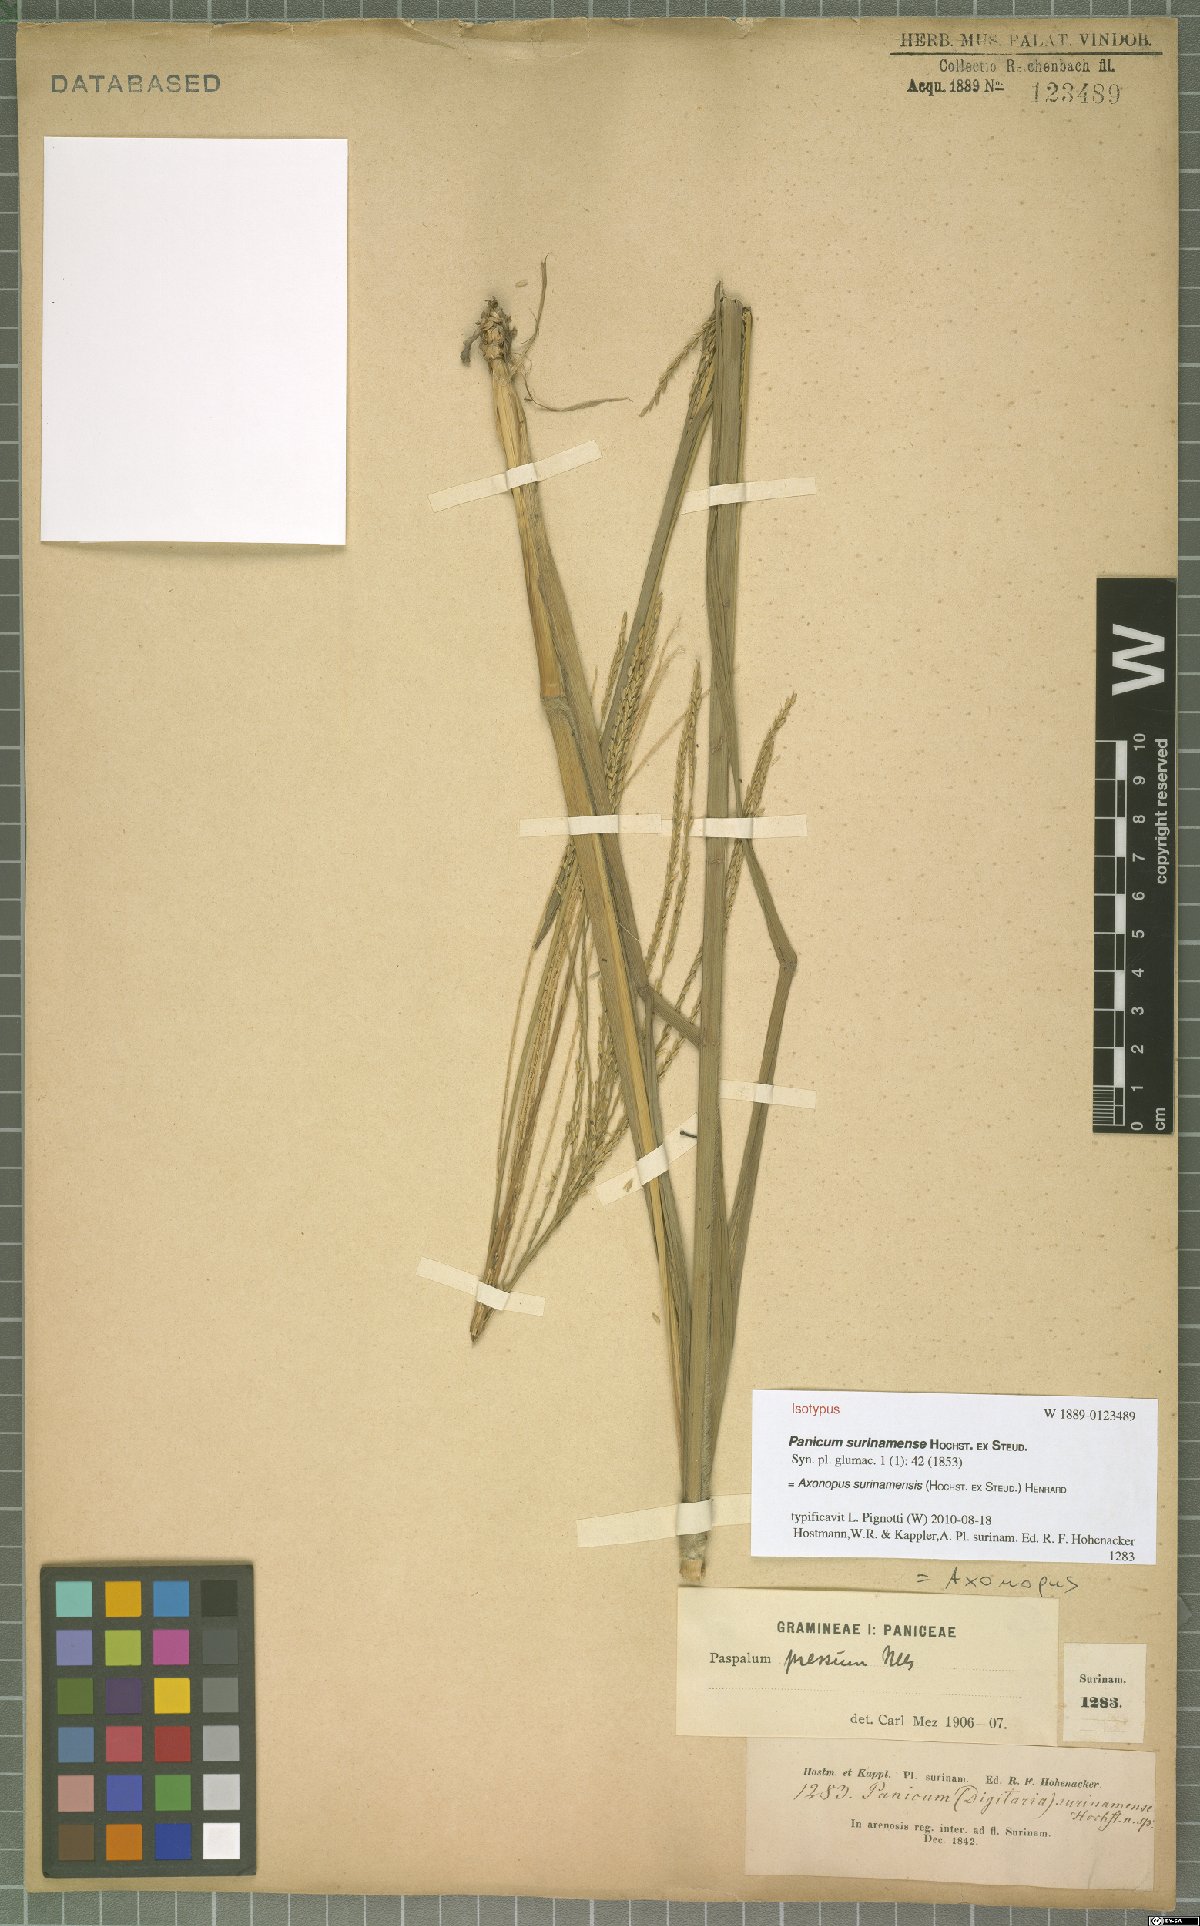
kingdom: Plantae
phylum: Tracheophyta
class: Liliopsida
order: Poales
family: Poaceae
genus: Axonopus
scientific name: Axonopus surinamensis
